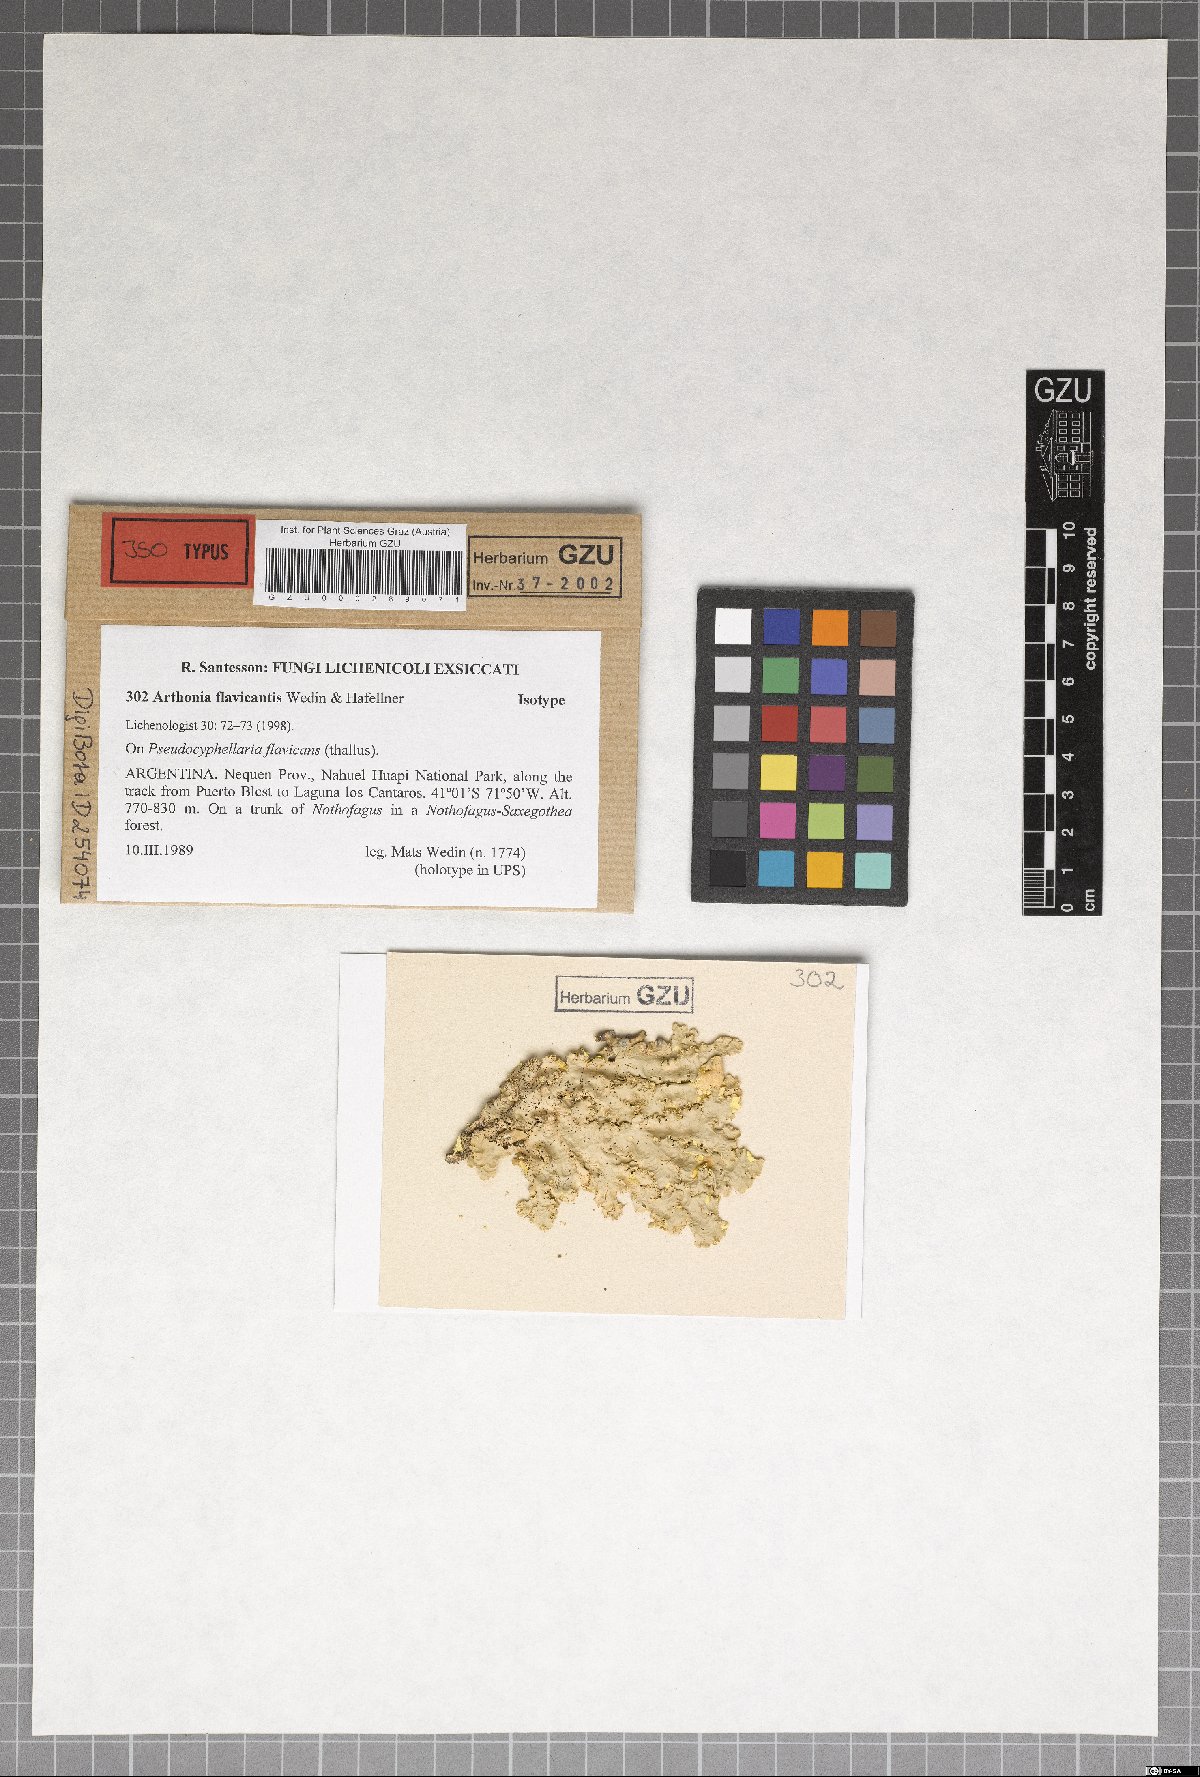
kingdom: Plantae
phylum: Marchantiophyta
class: Jungermanniopsida
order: Jungermanniales
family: Cephaloziaceae
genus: Odontoschisma
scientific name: Odontoschisma
